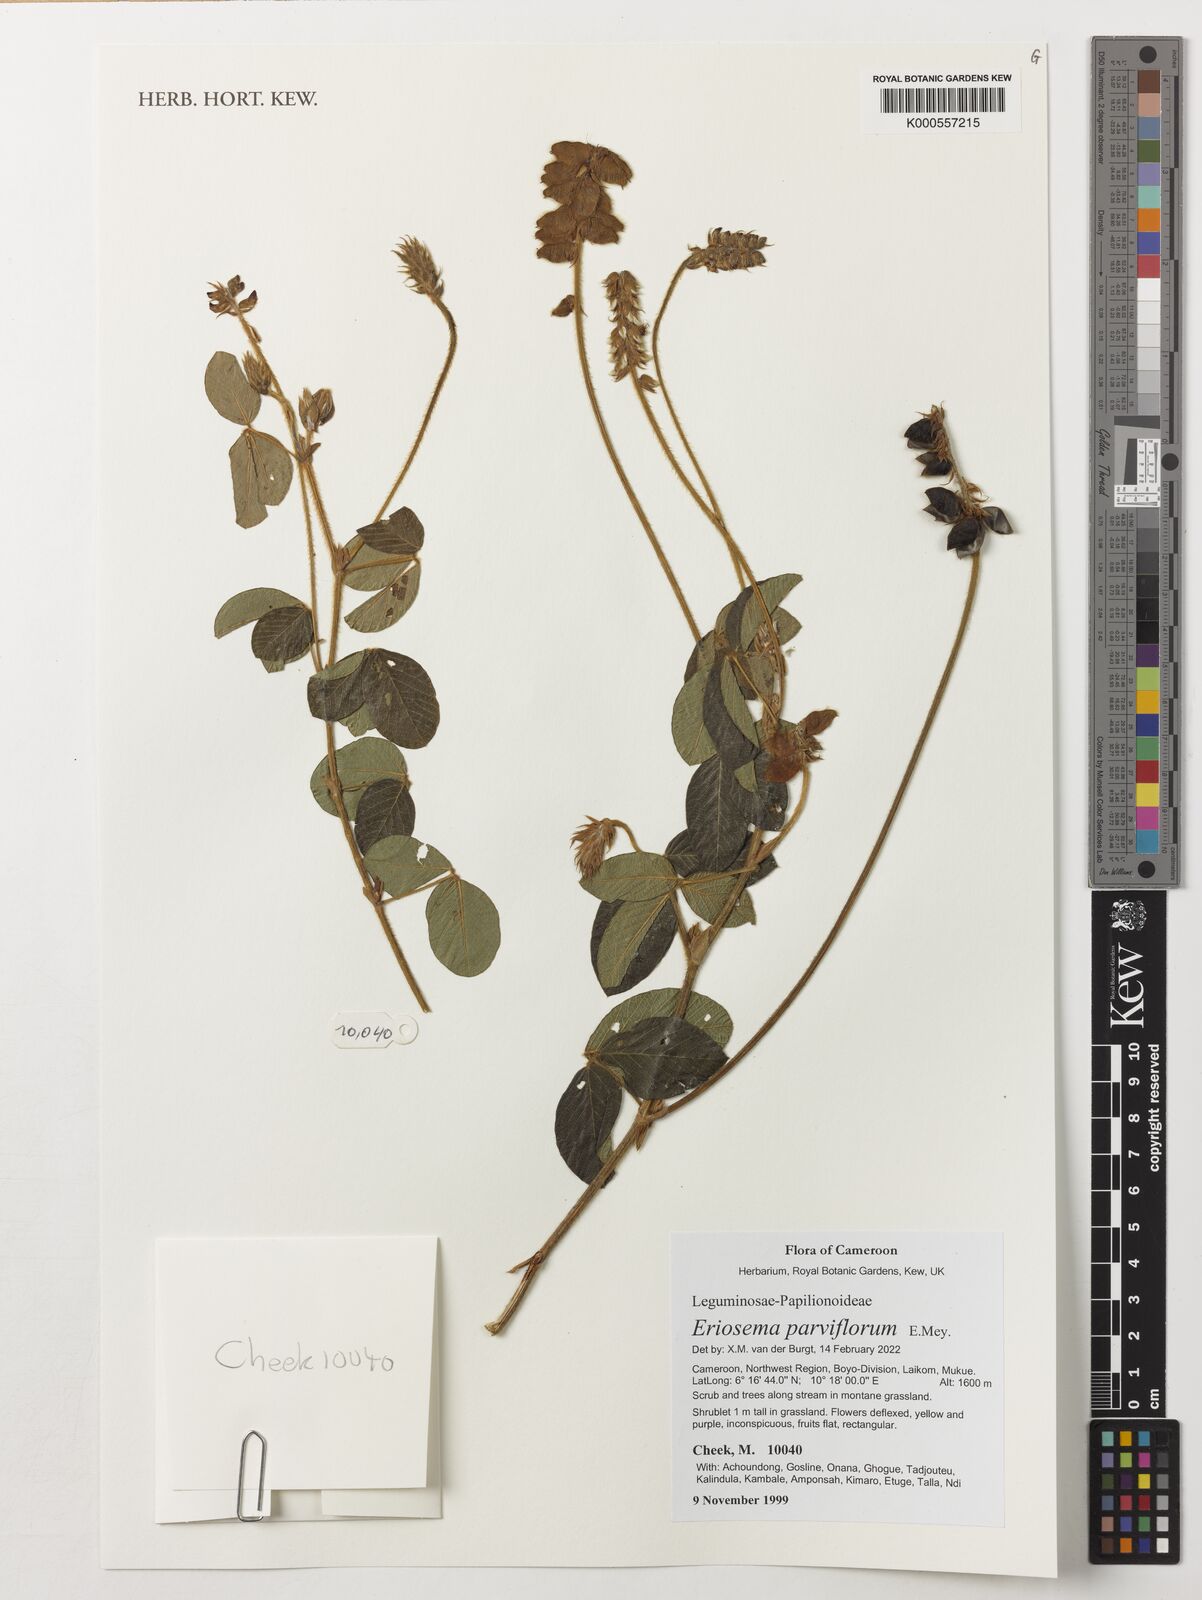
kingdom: Plantae
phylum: Tracheophyta
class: Magnoliopsida
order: Fabales
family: Fabaceae
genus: Eriosema
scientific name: Eriosema parviflorum
